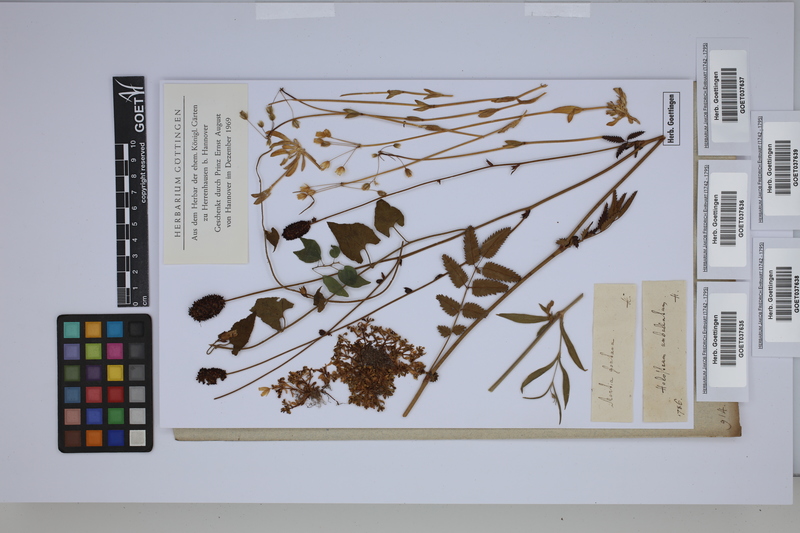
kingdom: Plantae
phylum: Tracheophyta
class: Magnoliopsida
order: Caryophyllales
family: Montiaceae
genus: Montia
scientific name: Montia fontana
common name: Blinks
